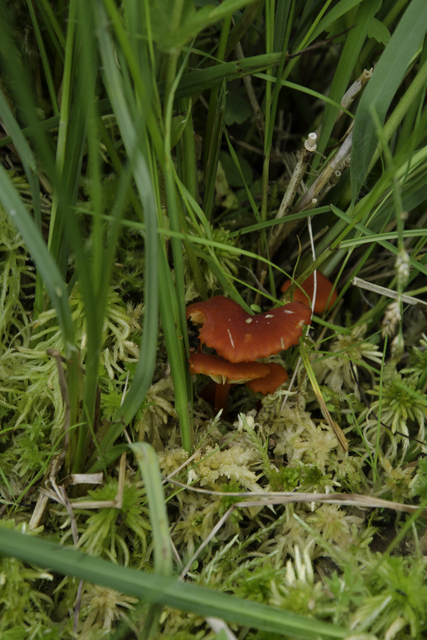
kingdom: Fungi
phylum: Basidiomycota
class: Agaricomycetes
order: Agaricales
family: Hygrophoraceae
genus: Hygrocybe
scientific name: Hygrocybe coccineocrenata
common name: tørvemos-vokshat
